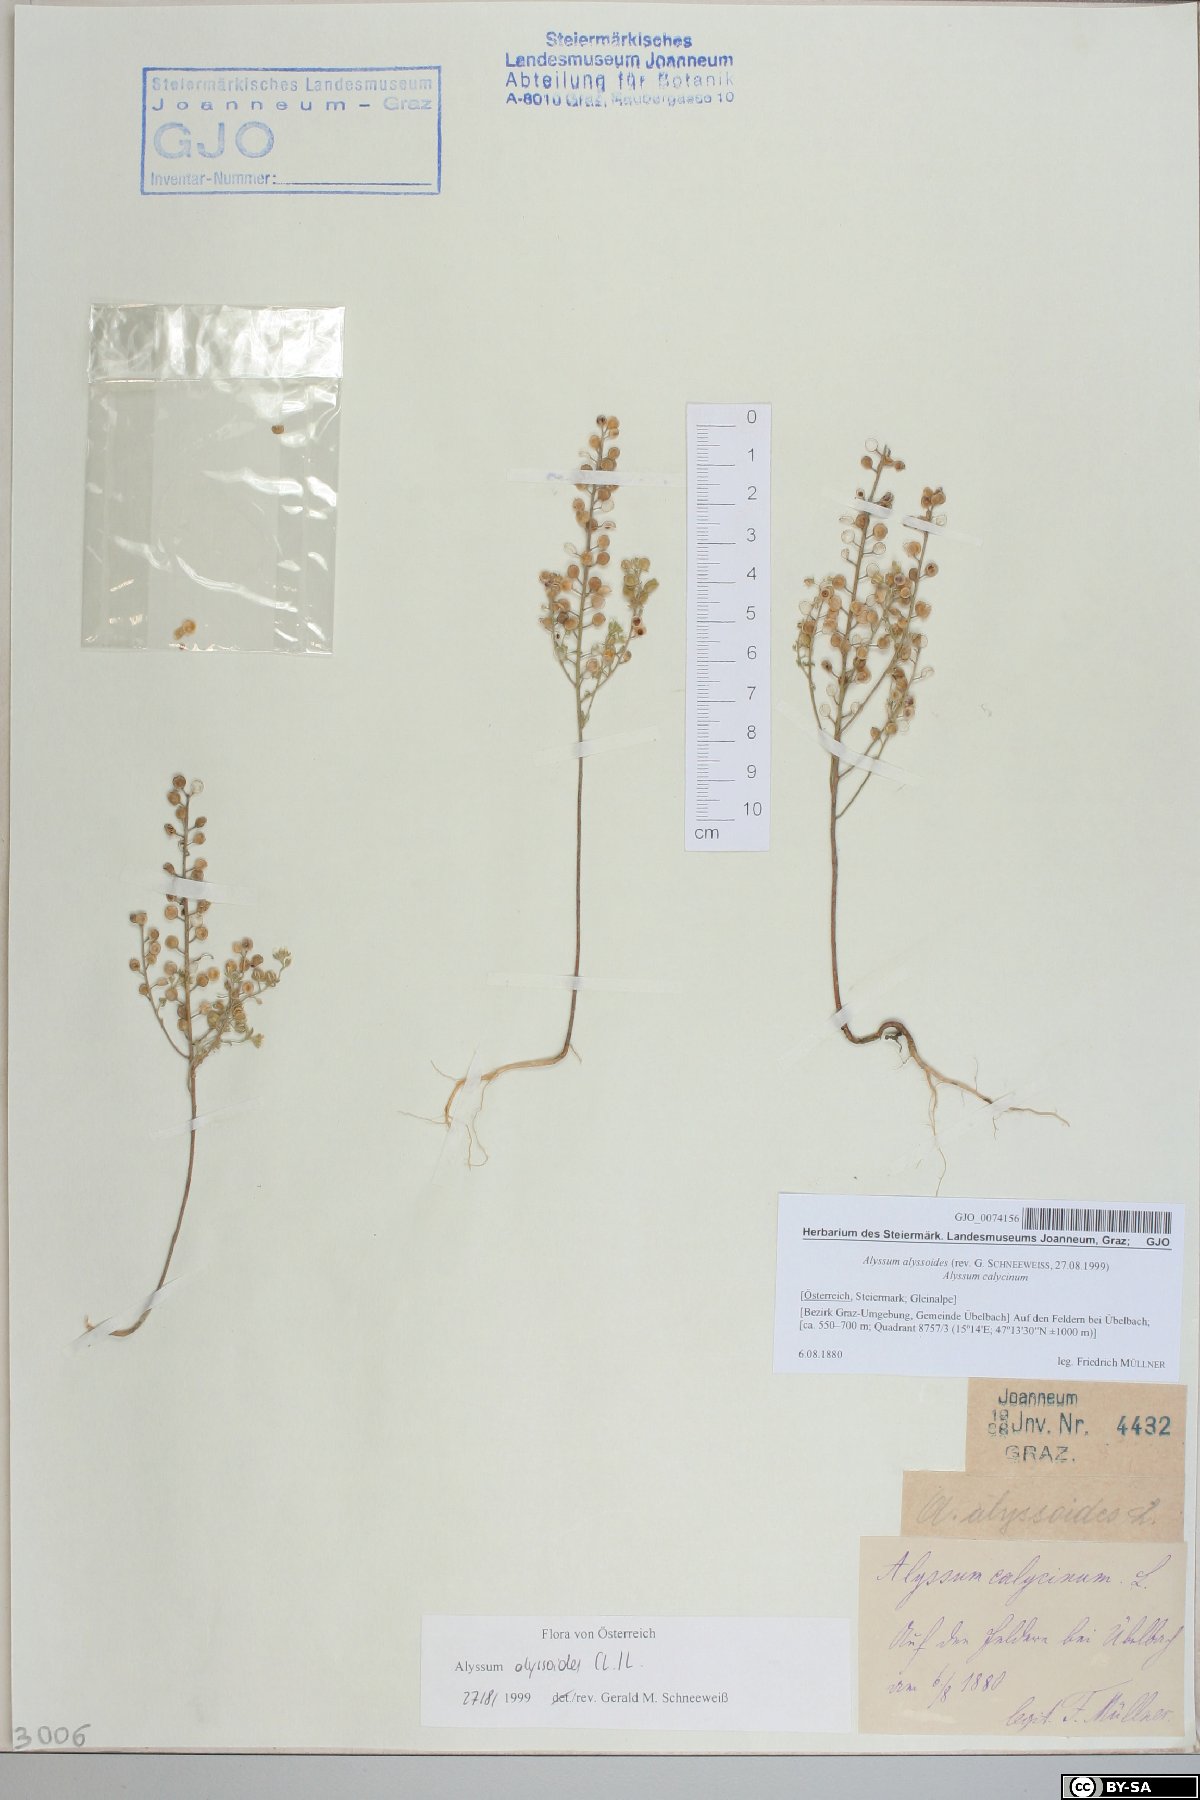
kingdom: Plantae
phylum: Tracheophyta
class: Magnoliopsida
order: Brassicales
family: Brassicaceae
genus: Alyssum
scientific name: Alyssum alyssoides
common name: Small alison
